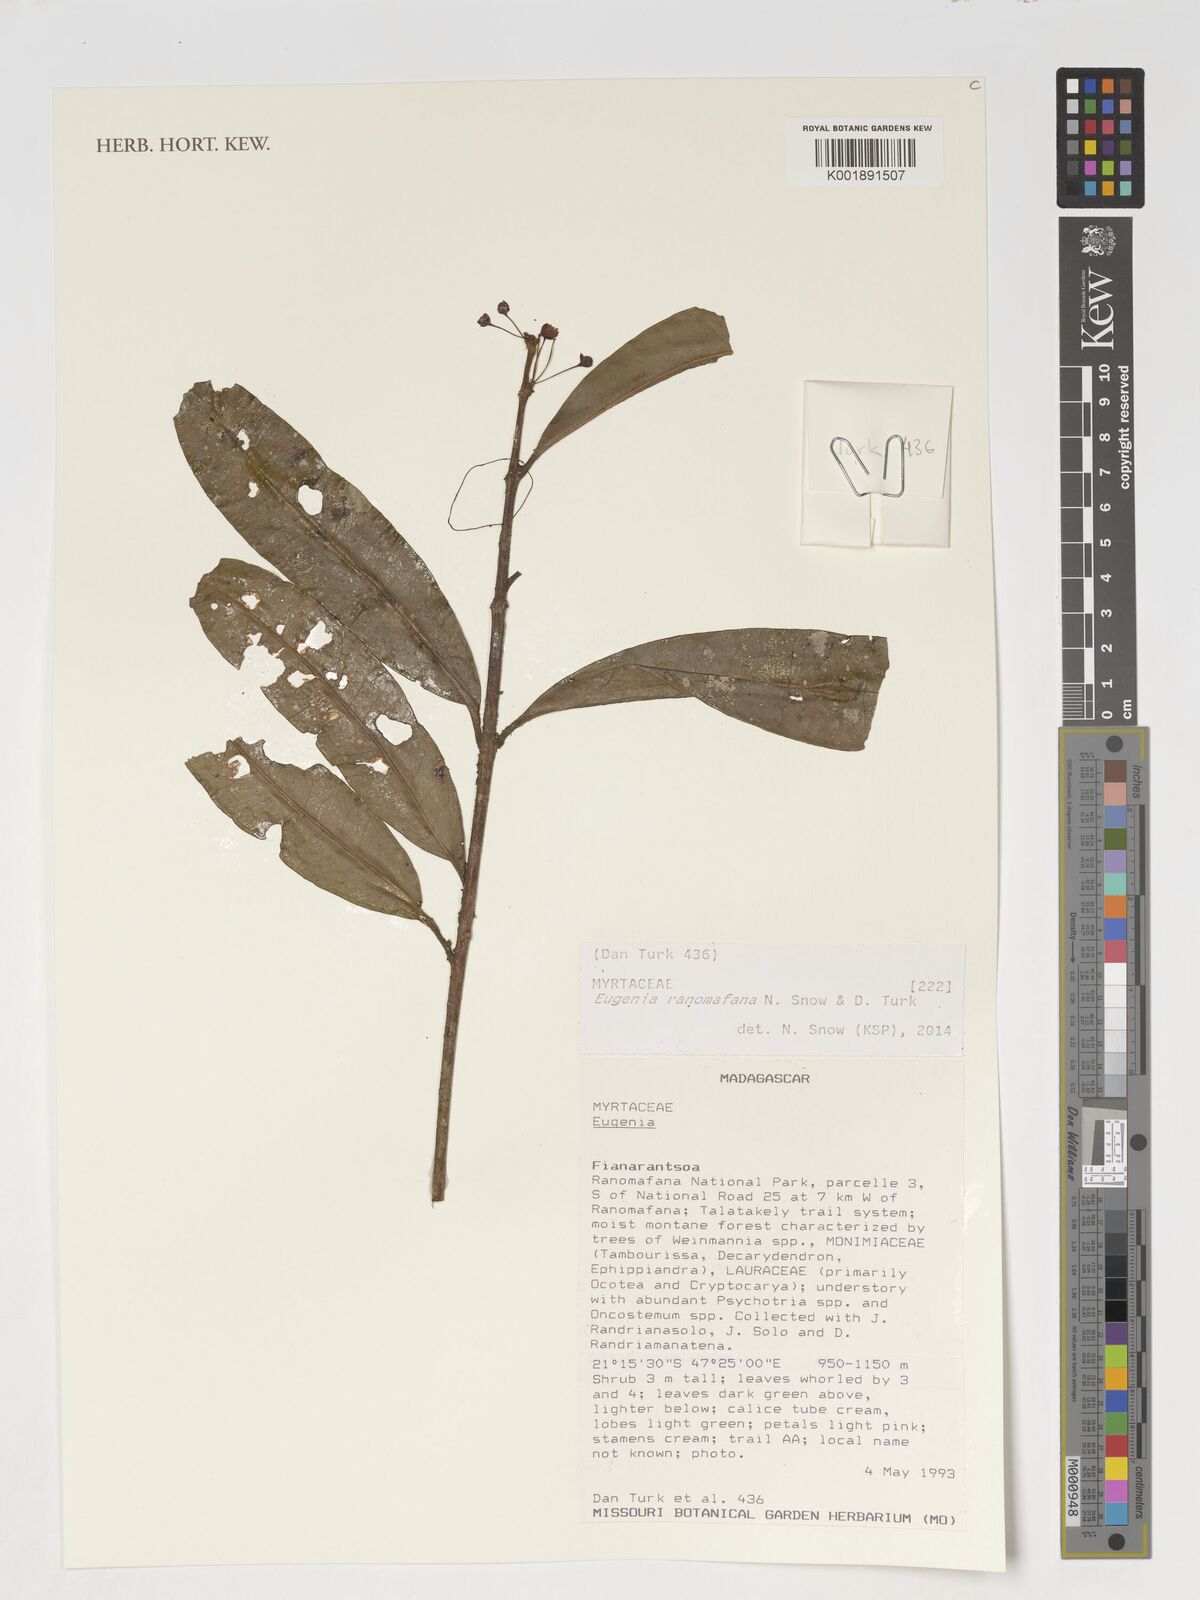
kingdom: Plantae
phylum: Tracheophyta
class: Magnoliopsida
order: Myrtales
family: Myrtaceae
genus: Eugenia
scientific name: Eugenia ranomafana
